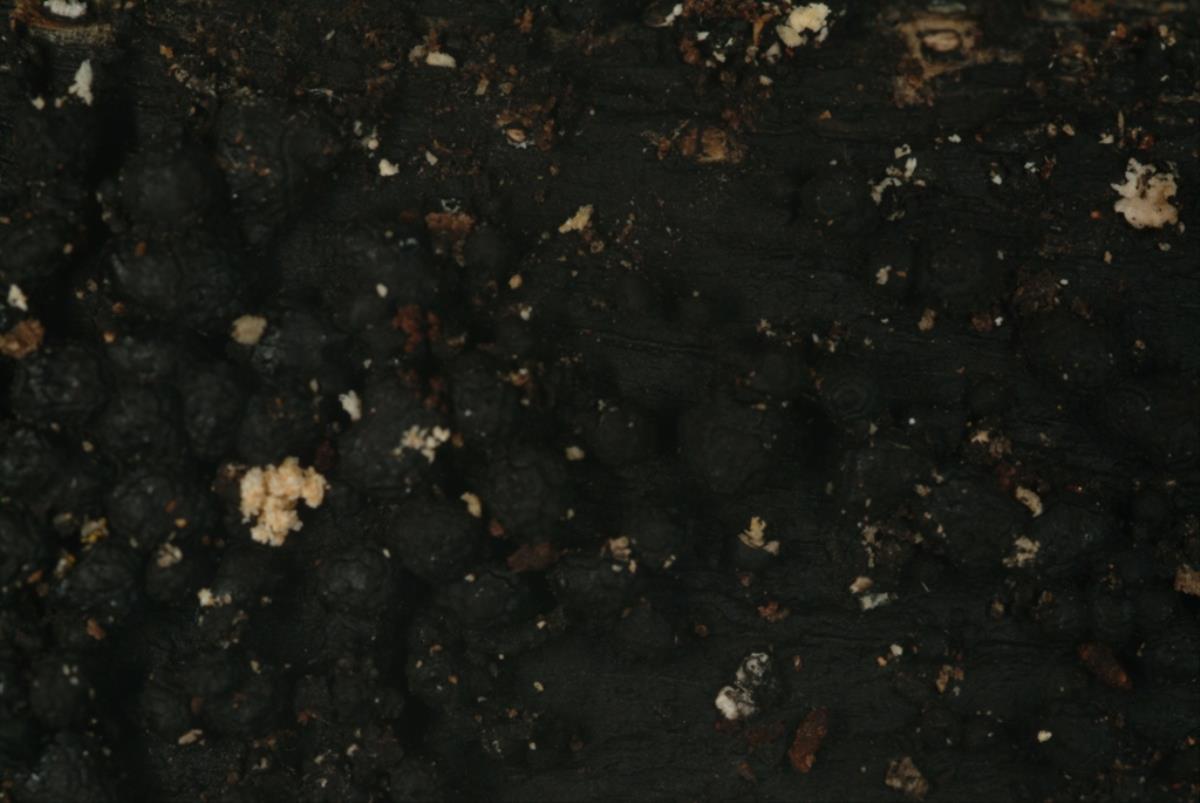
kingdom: Fungi
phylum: Ascomycota
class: Sordariomycetes
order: Xylariales
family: Xylariaceae
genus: Kretzschmaria
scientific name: Kretzschmaria
